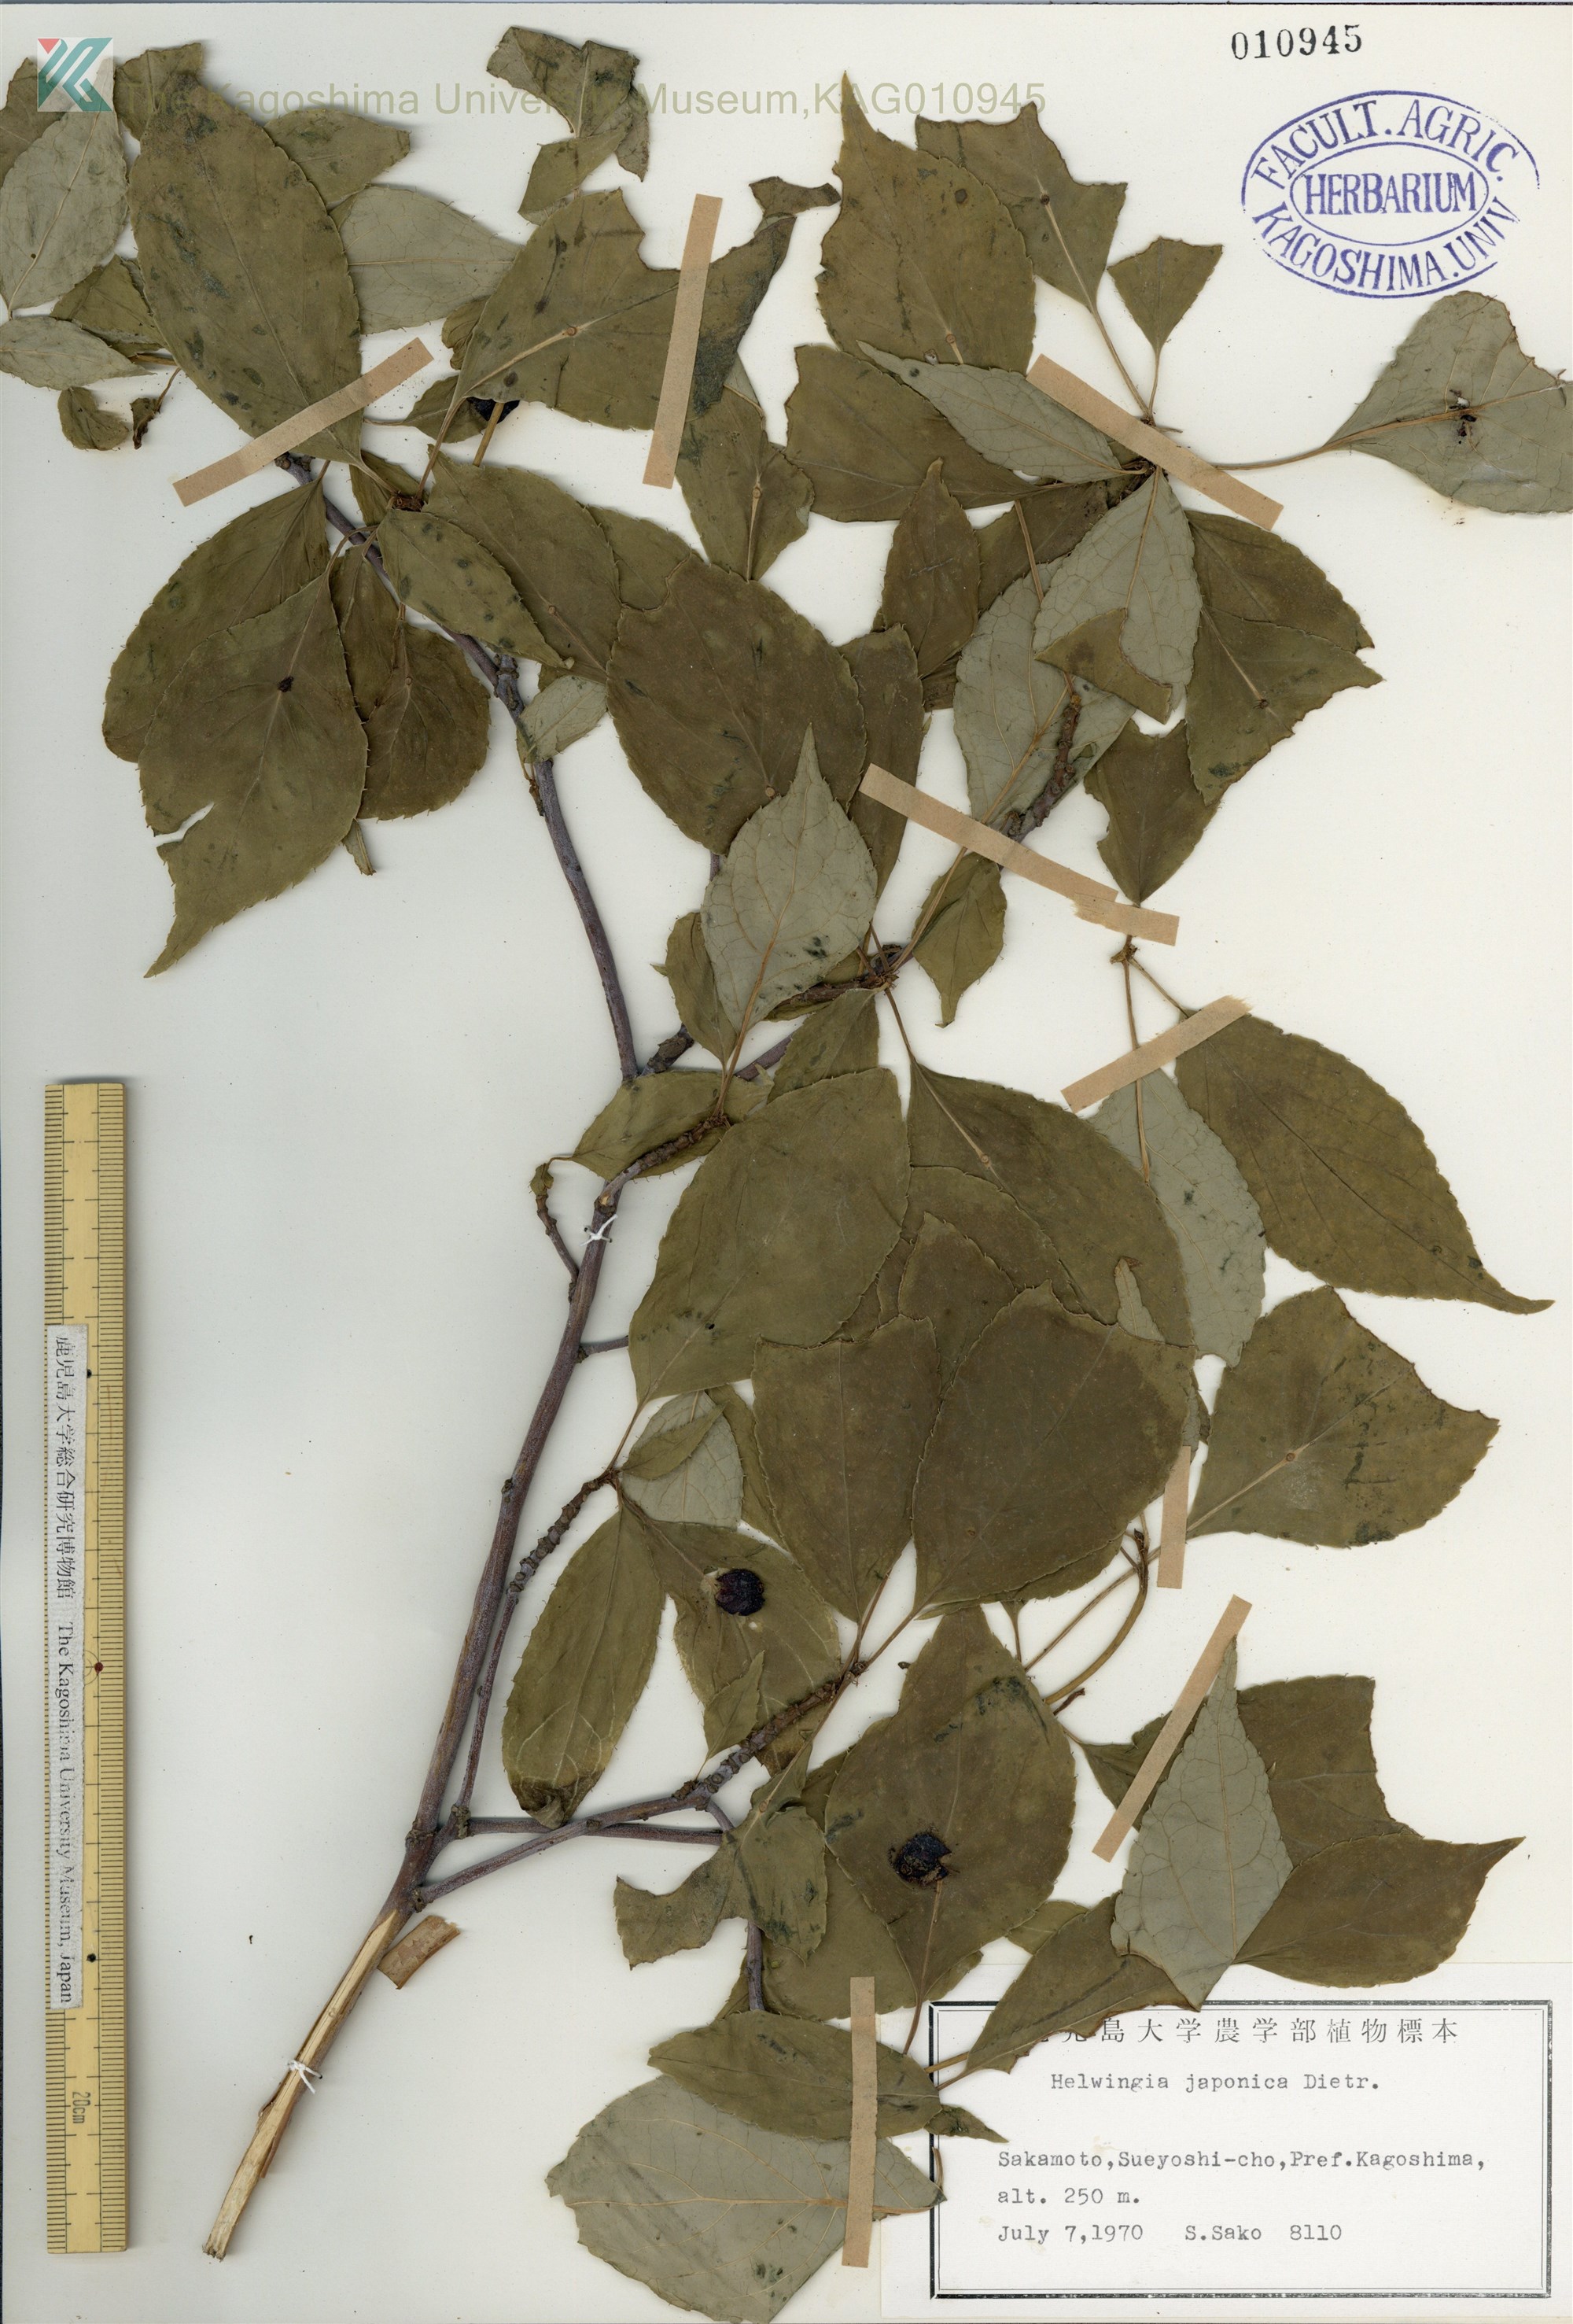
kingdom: Plantae
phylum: Tracheophyta
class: Magnoliopsida
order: Aquifoliales
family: Helwingiaceae
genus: Helwingia
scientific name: Helwingia japonica
